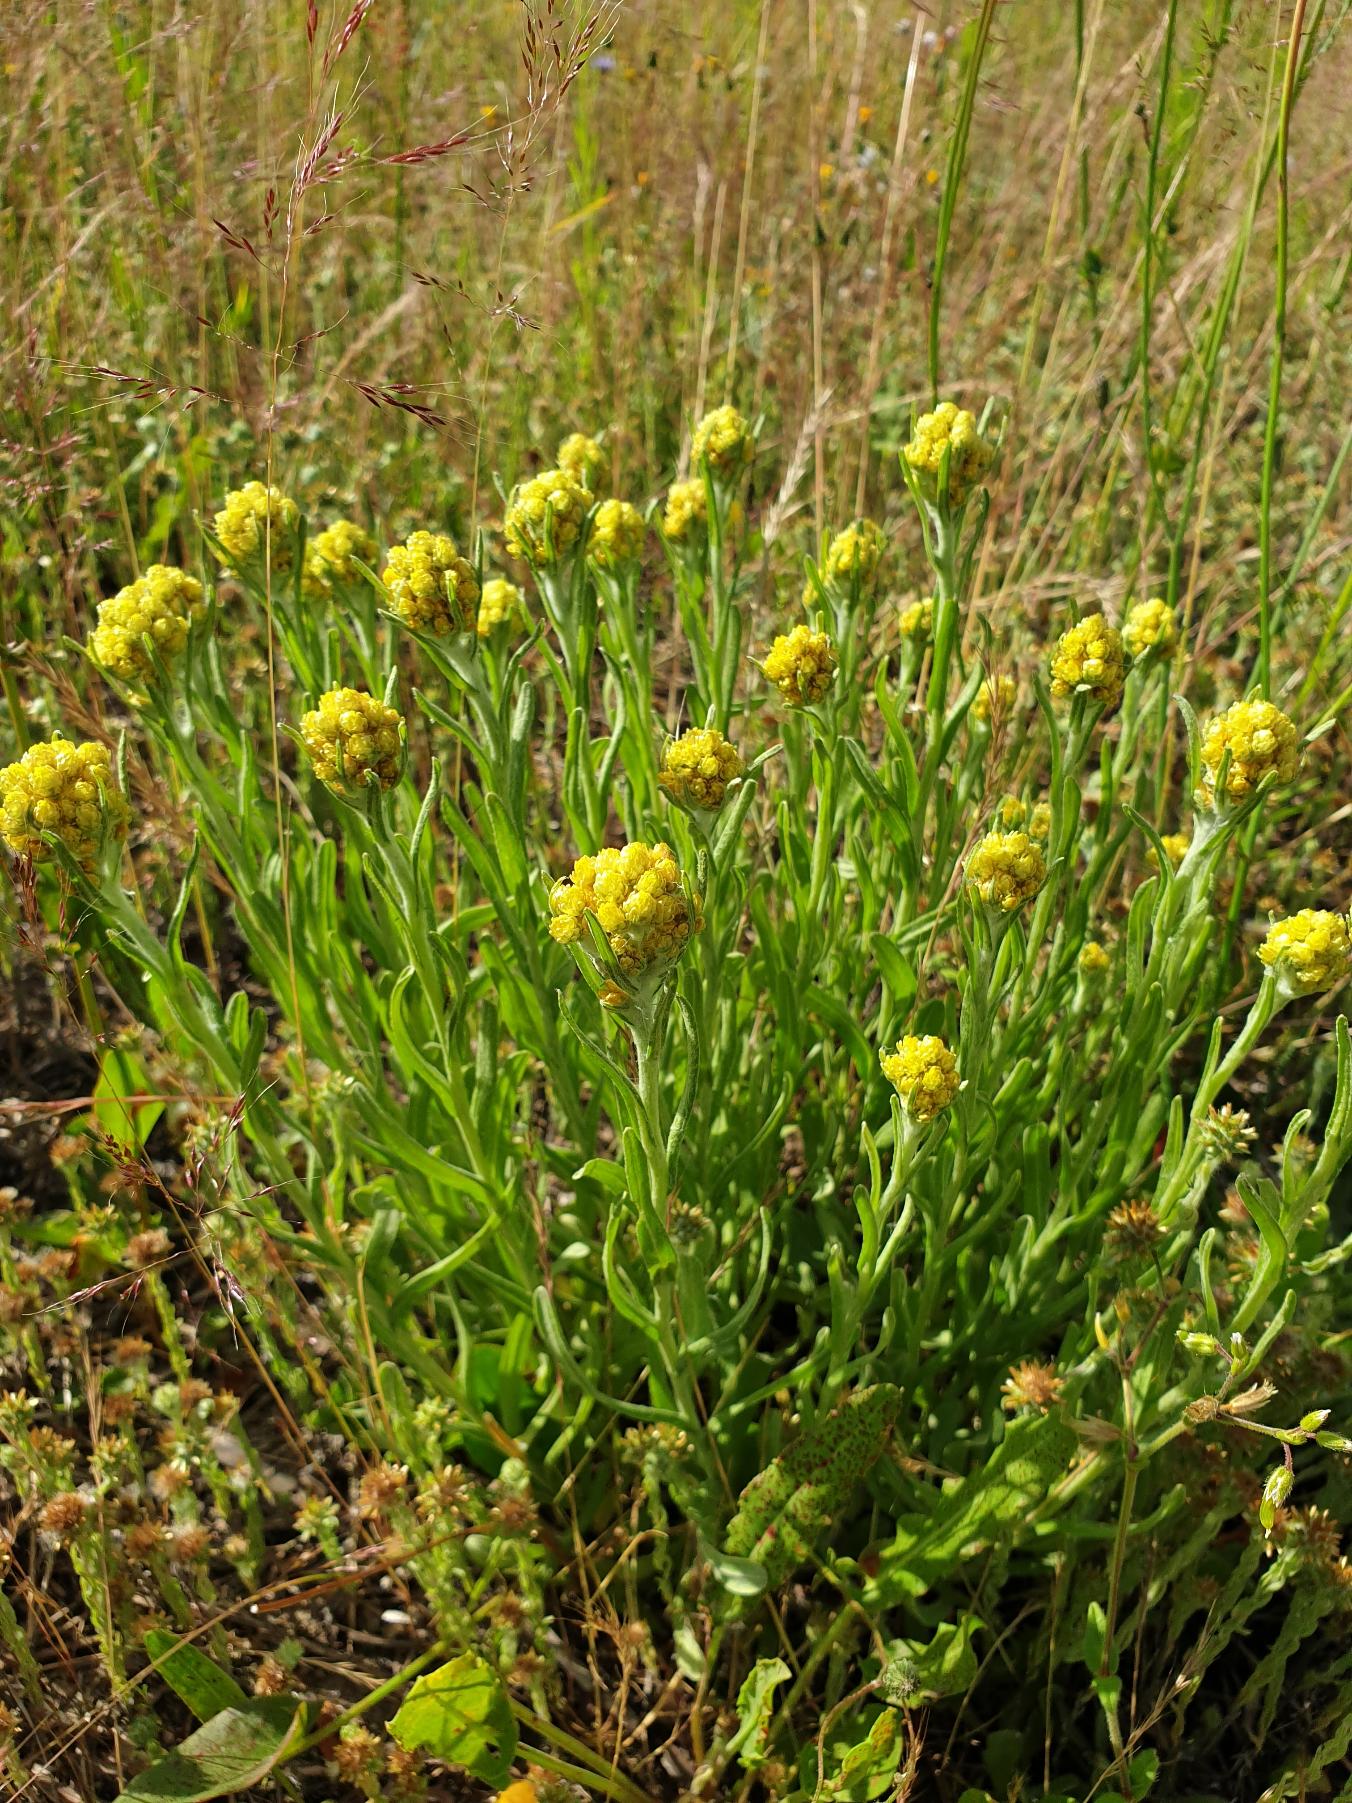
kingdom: Plantae
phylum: Tracheophyta
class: Magnoliopsida
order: Asterales
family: Asteraceae
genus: Helichrysum
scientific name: Helichrysum arenarium
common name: Gul evighedsblomst
